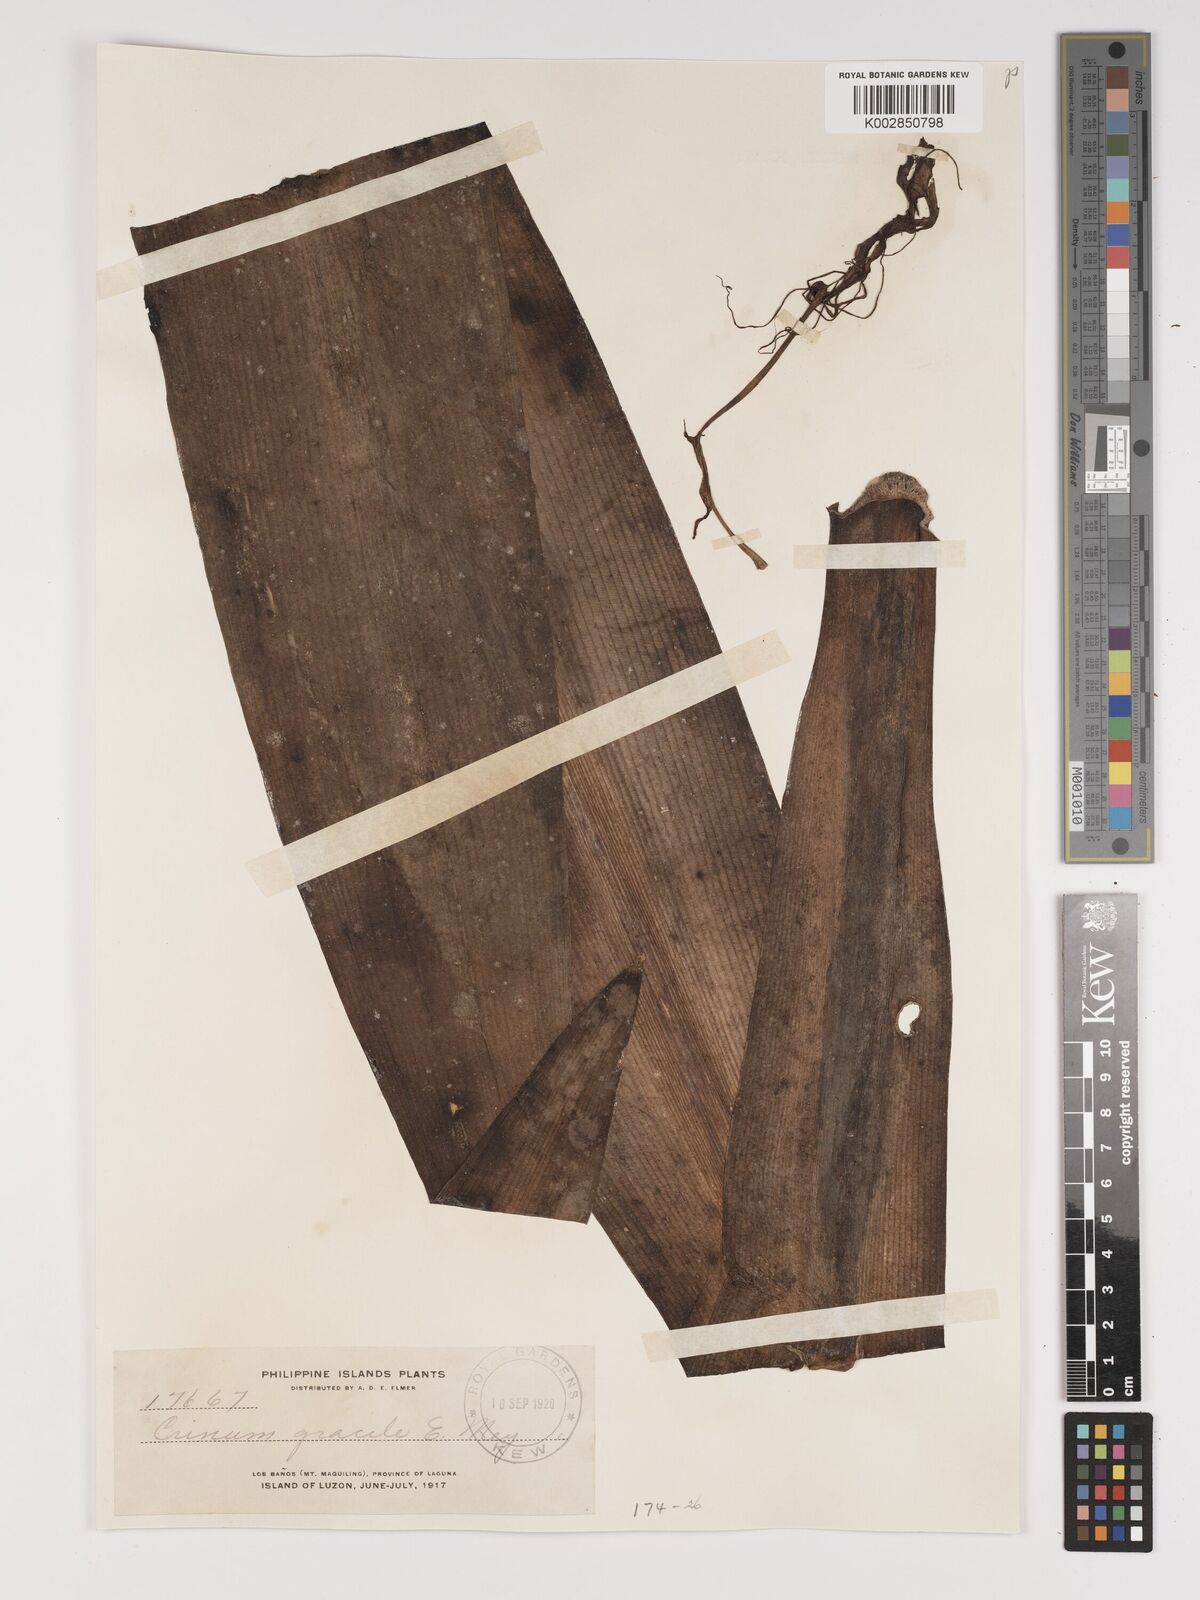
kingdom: Plantae
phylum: Tracheophyta
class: Liliopsida
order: Asparagales
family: Amaryllidaceae
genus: Crinum
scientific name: Crinum asiaticum
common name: Poisonbulb
